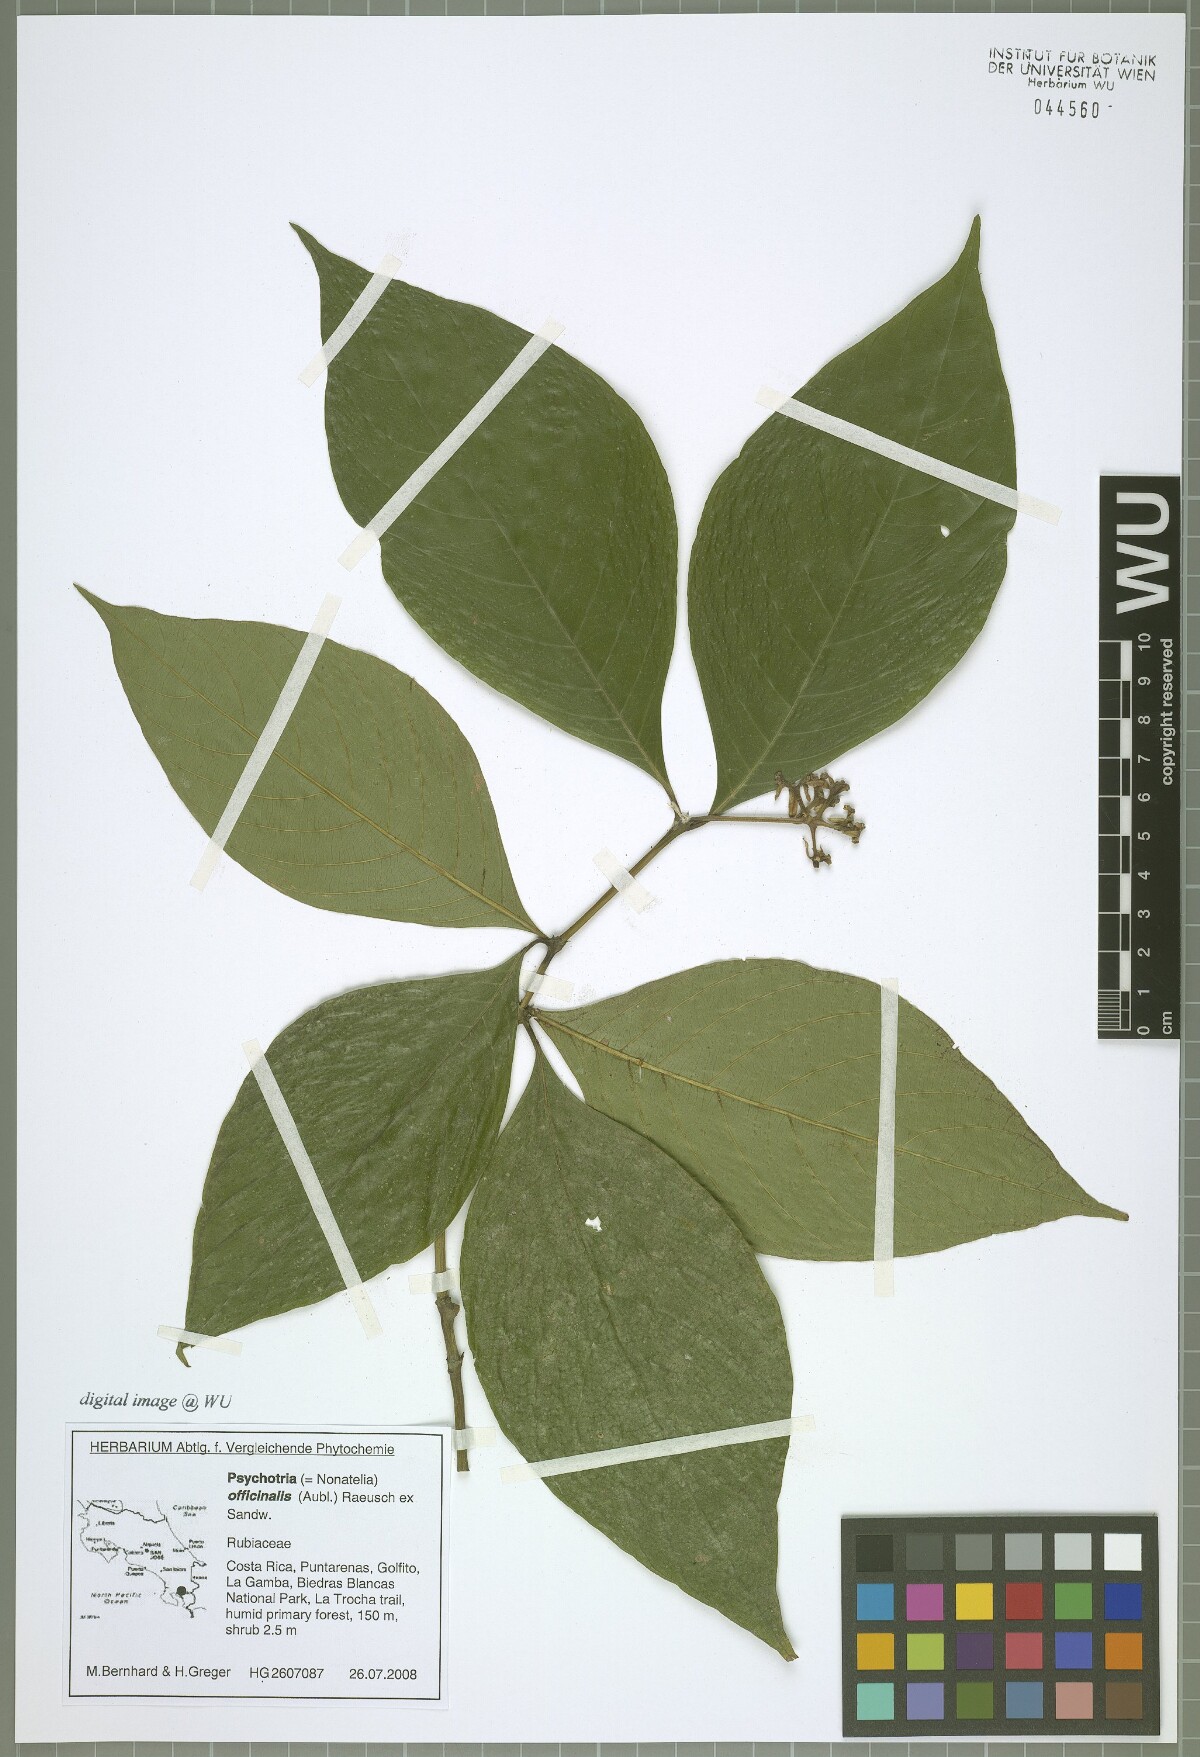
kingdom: Plantae
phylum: Tracheophyta
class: Magnoliopsida
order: Gentianales
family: Rubiaceae
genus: Palicourea
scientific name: Palicourea winkleri
